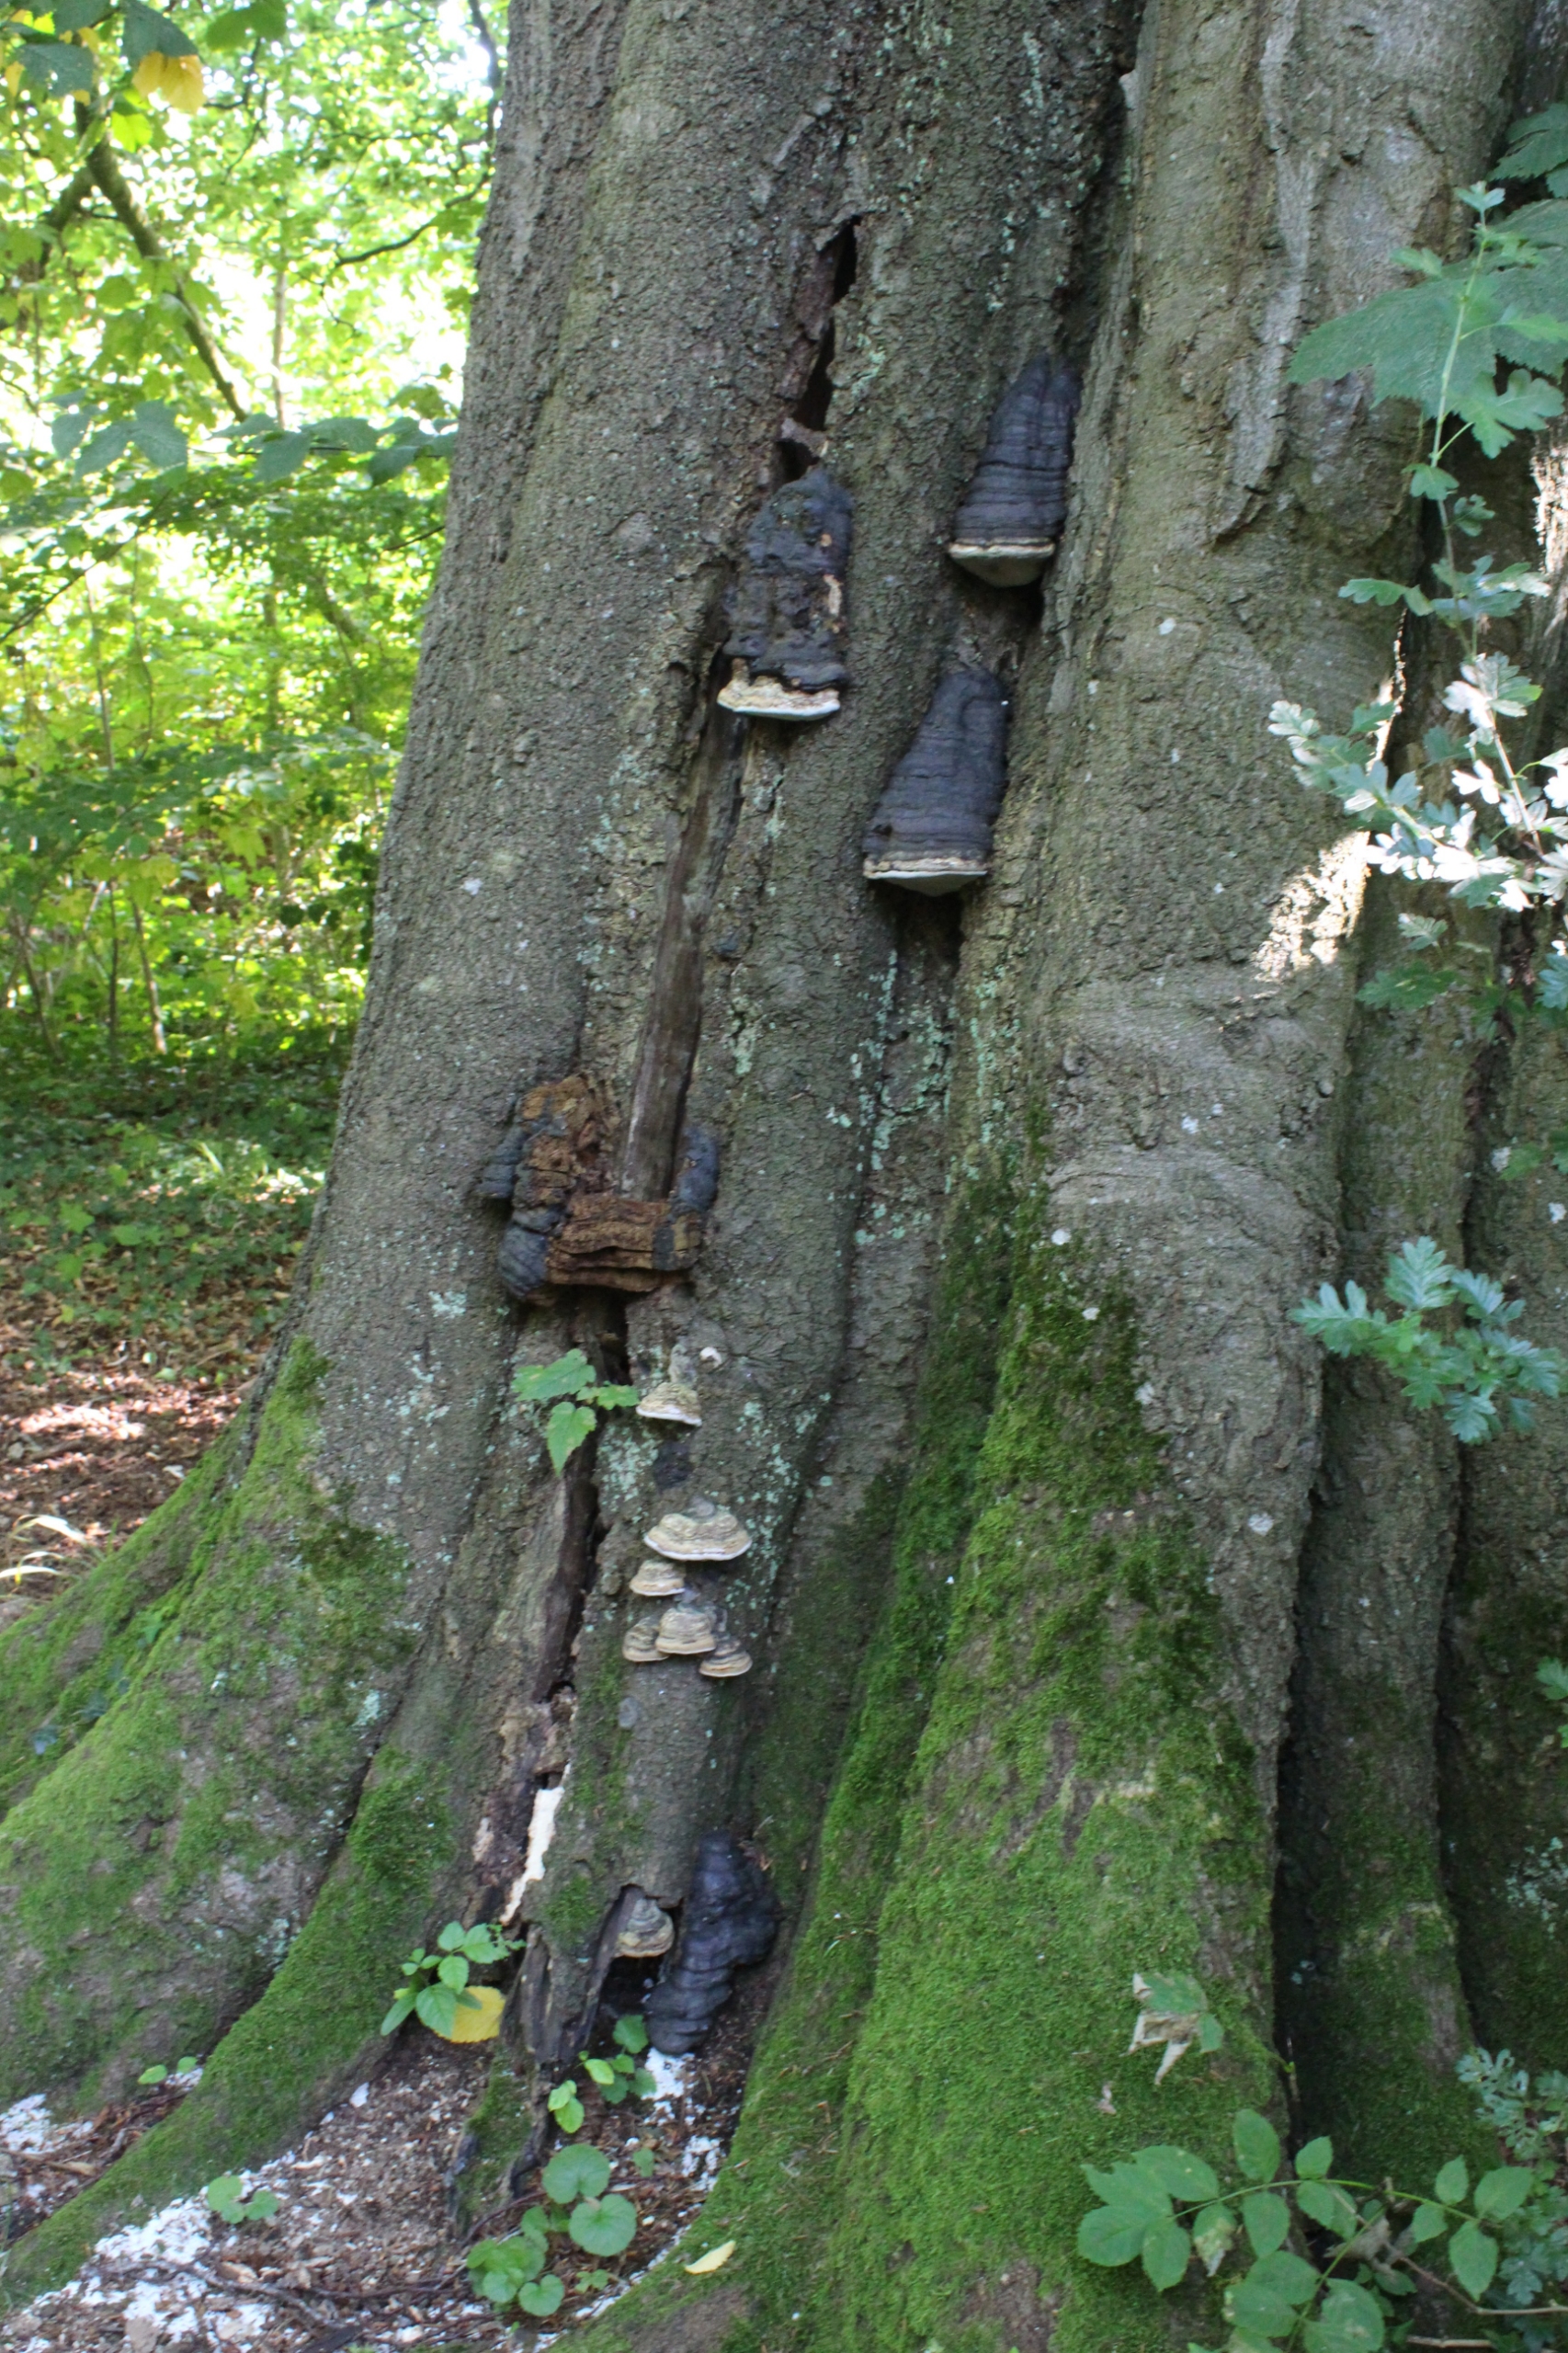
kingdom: Fungi
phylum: Basidiomycota
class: Agaricomycetes
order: Polyporales
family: Polyporaceae
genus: Fomes
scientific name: Fomes
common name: Tøndersvamp
